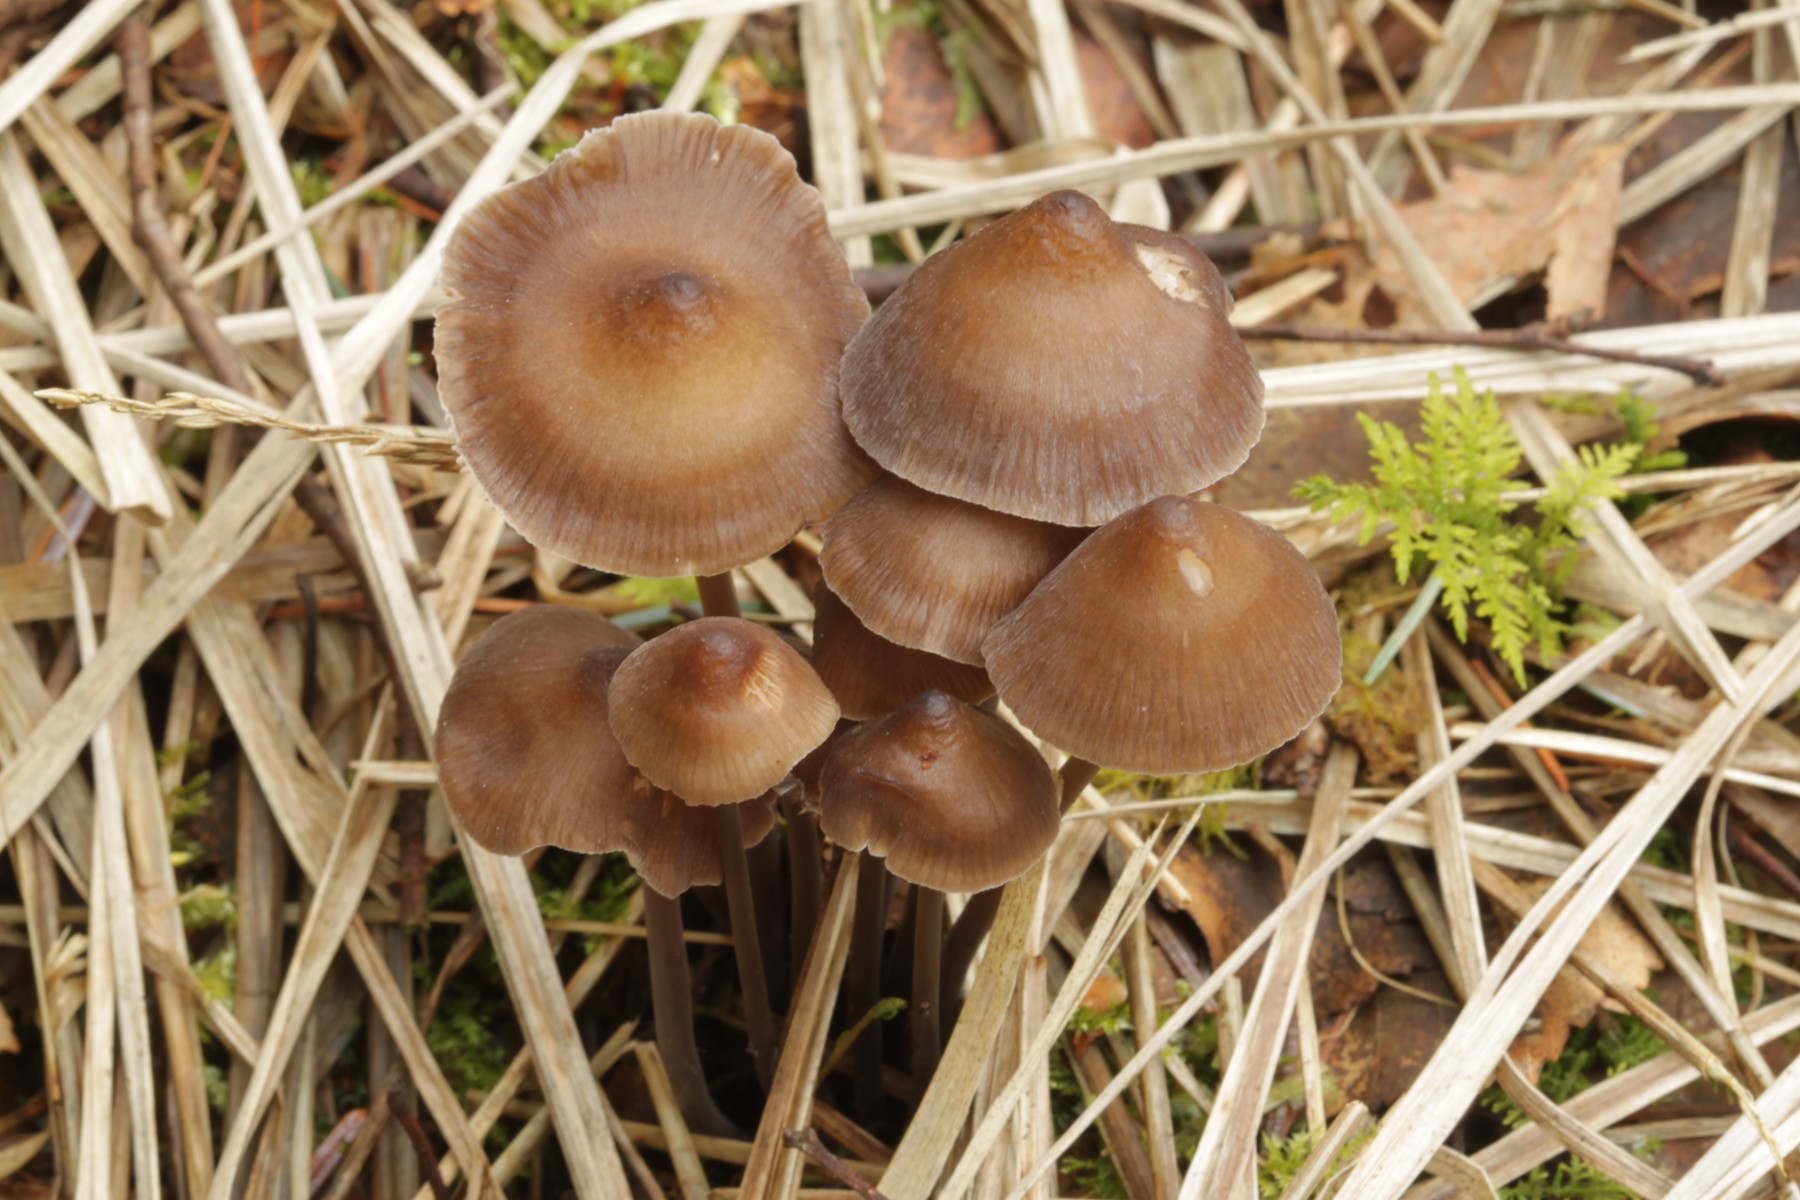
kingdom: Fungi
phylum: Basidiomycota
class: Agaricomycetes
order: Agaricales
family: Mycenaceae
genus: Mycena
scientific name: Mycena silvae-nigrae
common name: tidlig huesvamp
